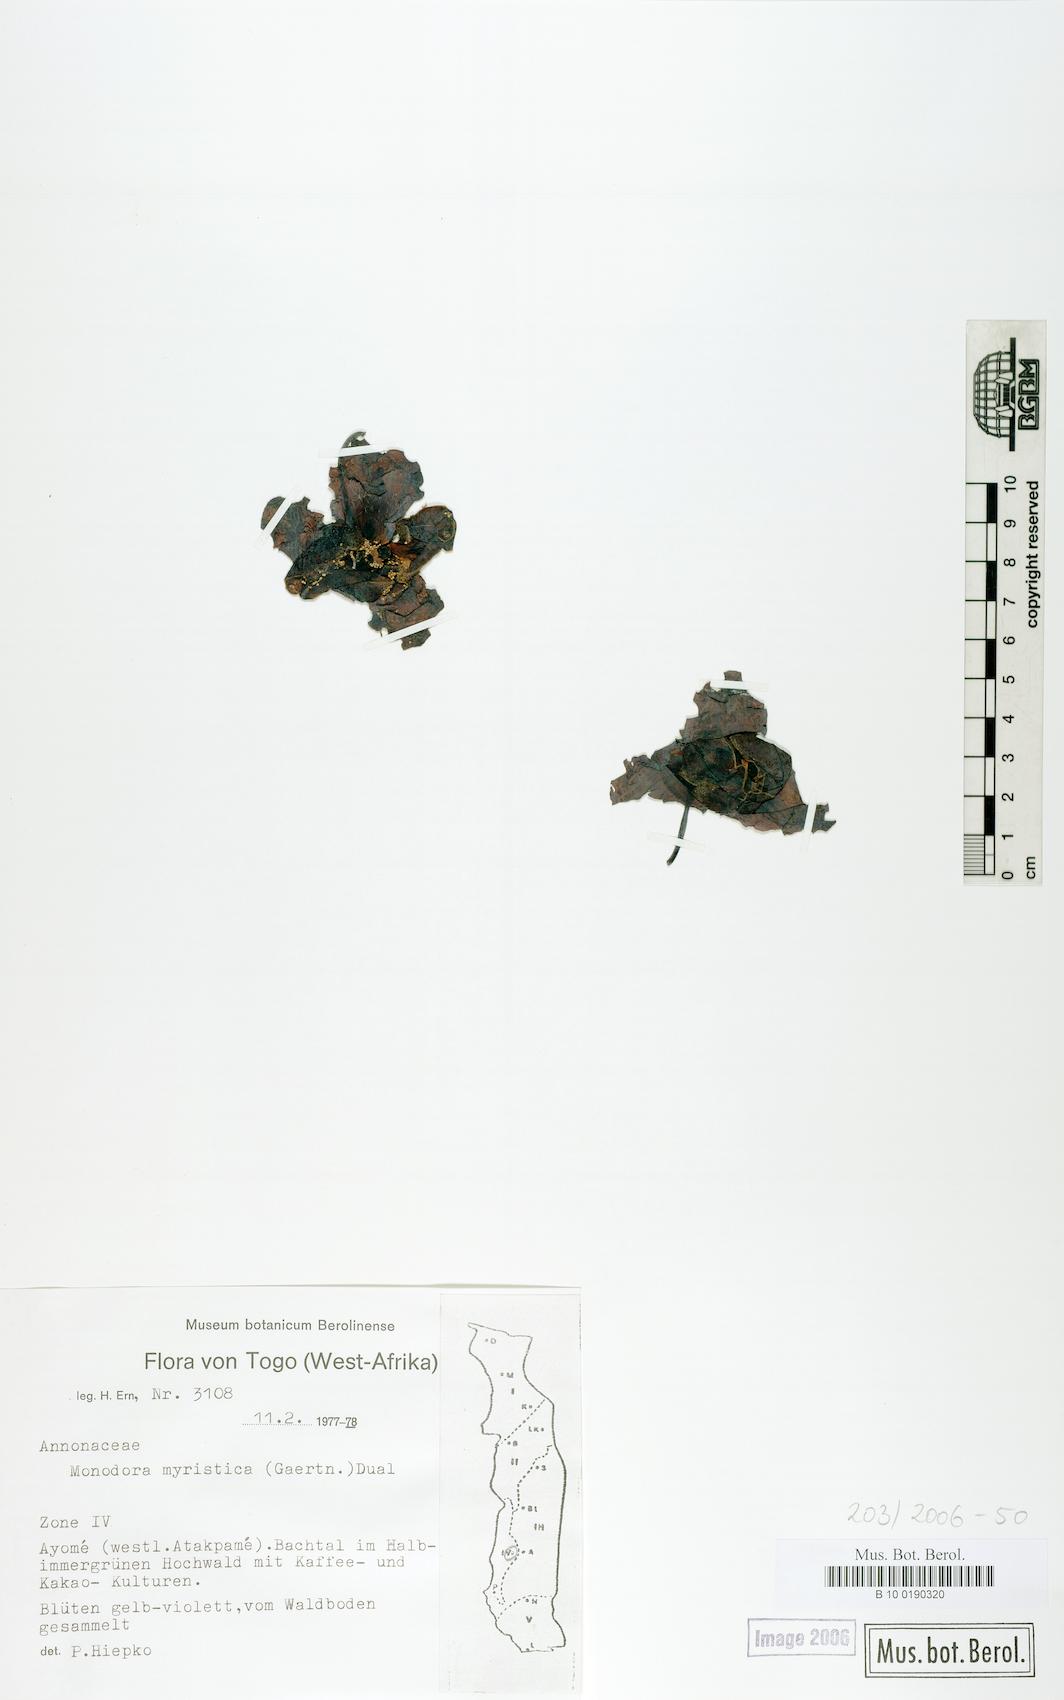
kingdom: Plantae
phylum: Tracheophyta
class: Magnoliopsida
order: Magnoliales
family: Annonaceae
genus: Monodora
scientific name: Monodora myristica
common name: African nutmeg
